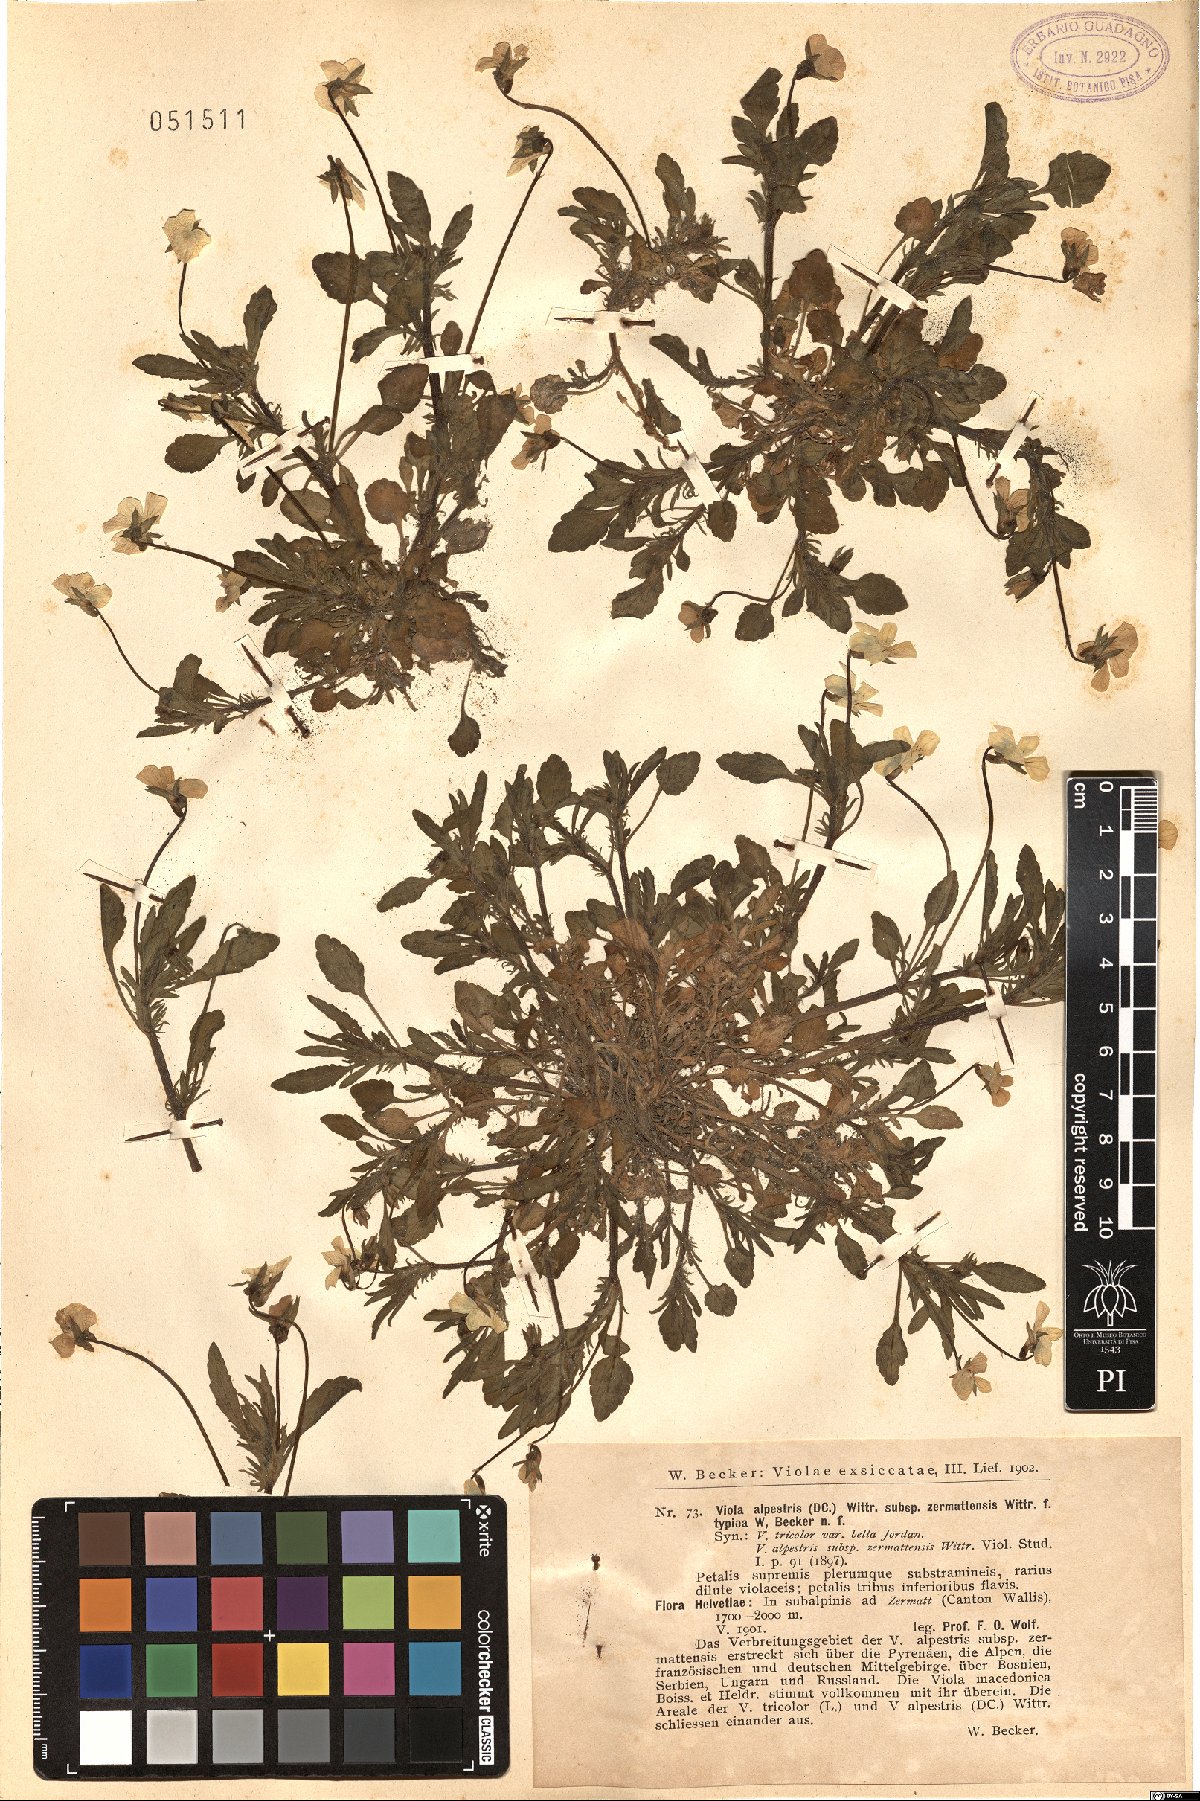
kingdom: Plantae
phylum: Tracheophyta
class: Magnoliopsida
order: Malpighiales
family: Violaceae
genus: Viola
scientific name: Viola tricolor
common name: Pansy
